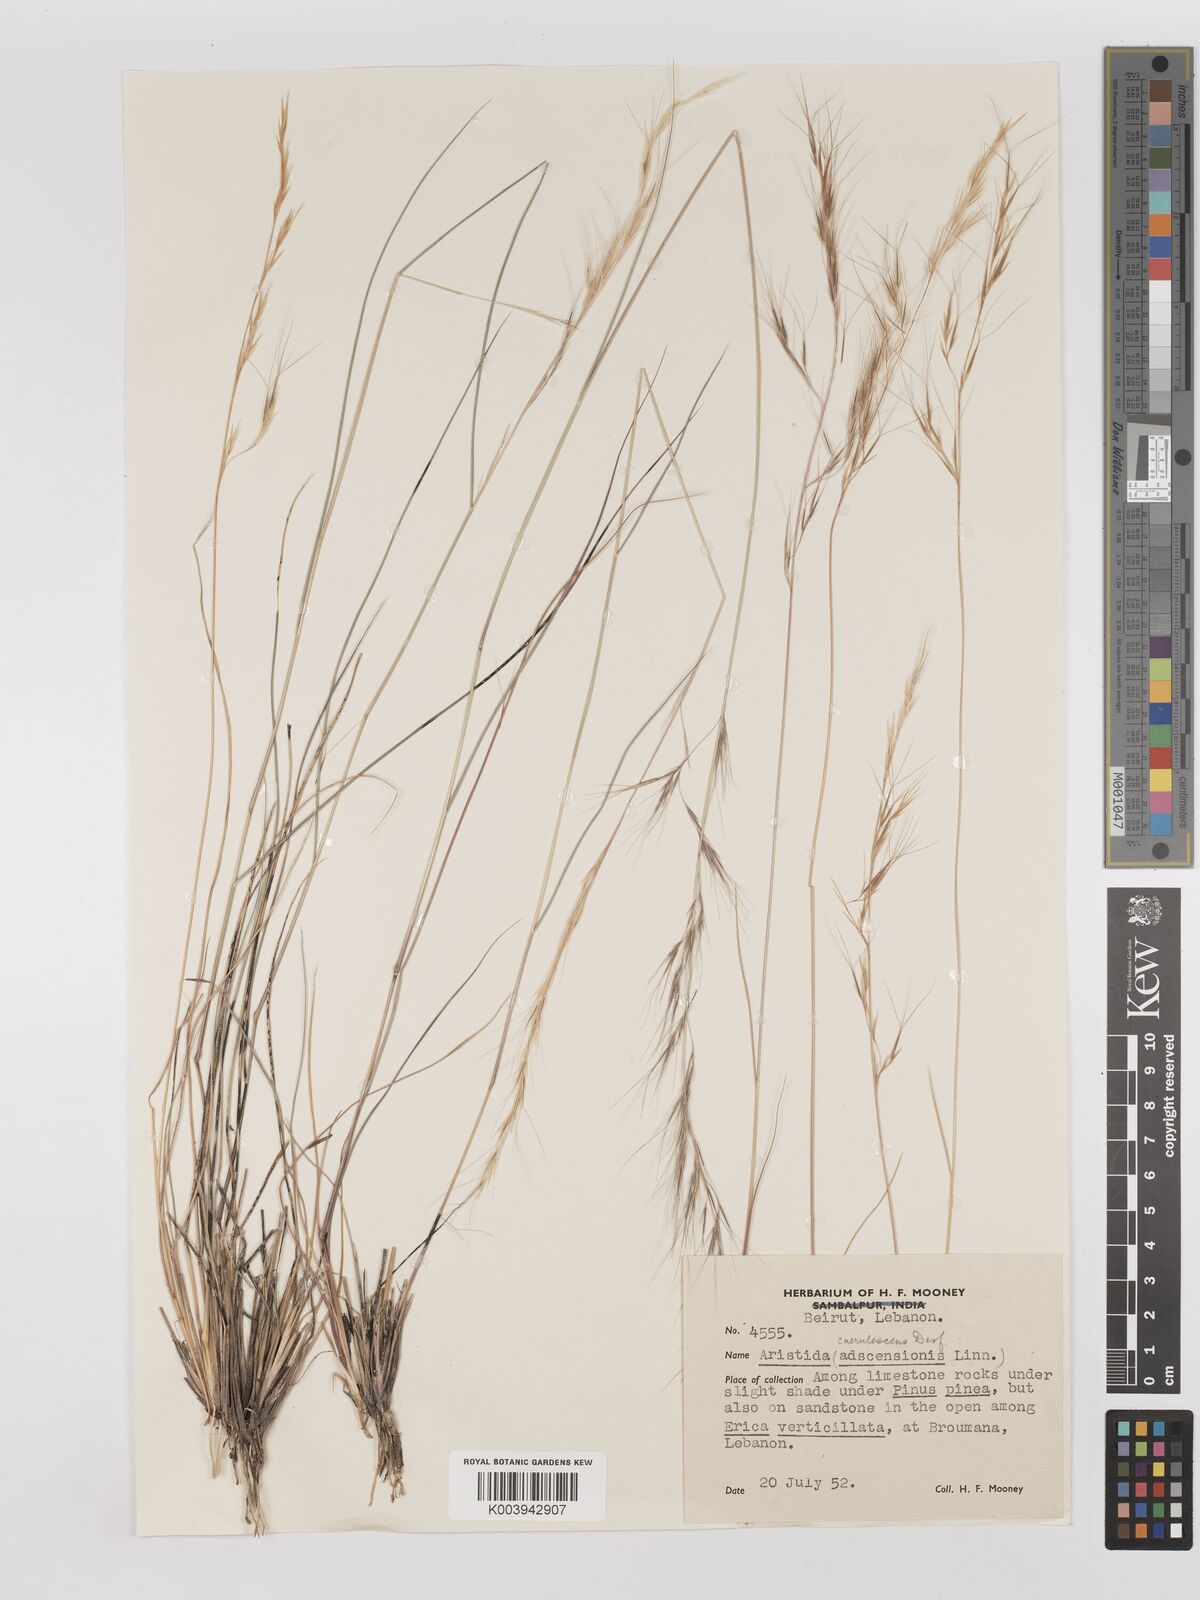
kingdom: Plantae
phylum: Tracheophyta
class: Liliopsida
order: Poales
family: Poaceae
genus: Aristida
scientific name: Aristida adscensionis
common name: Sixweeks threeawn
